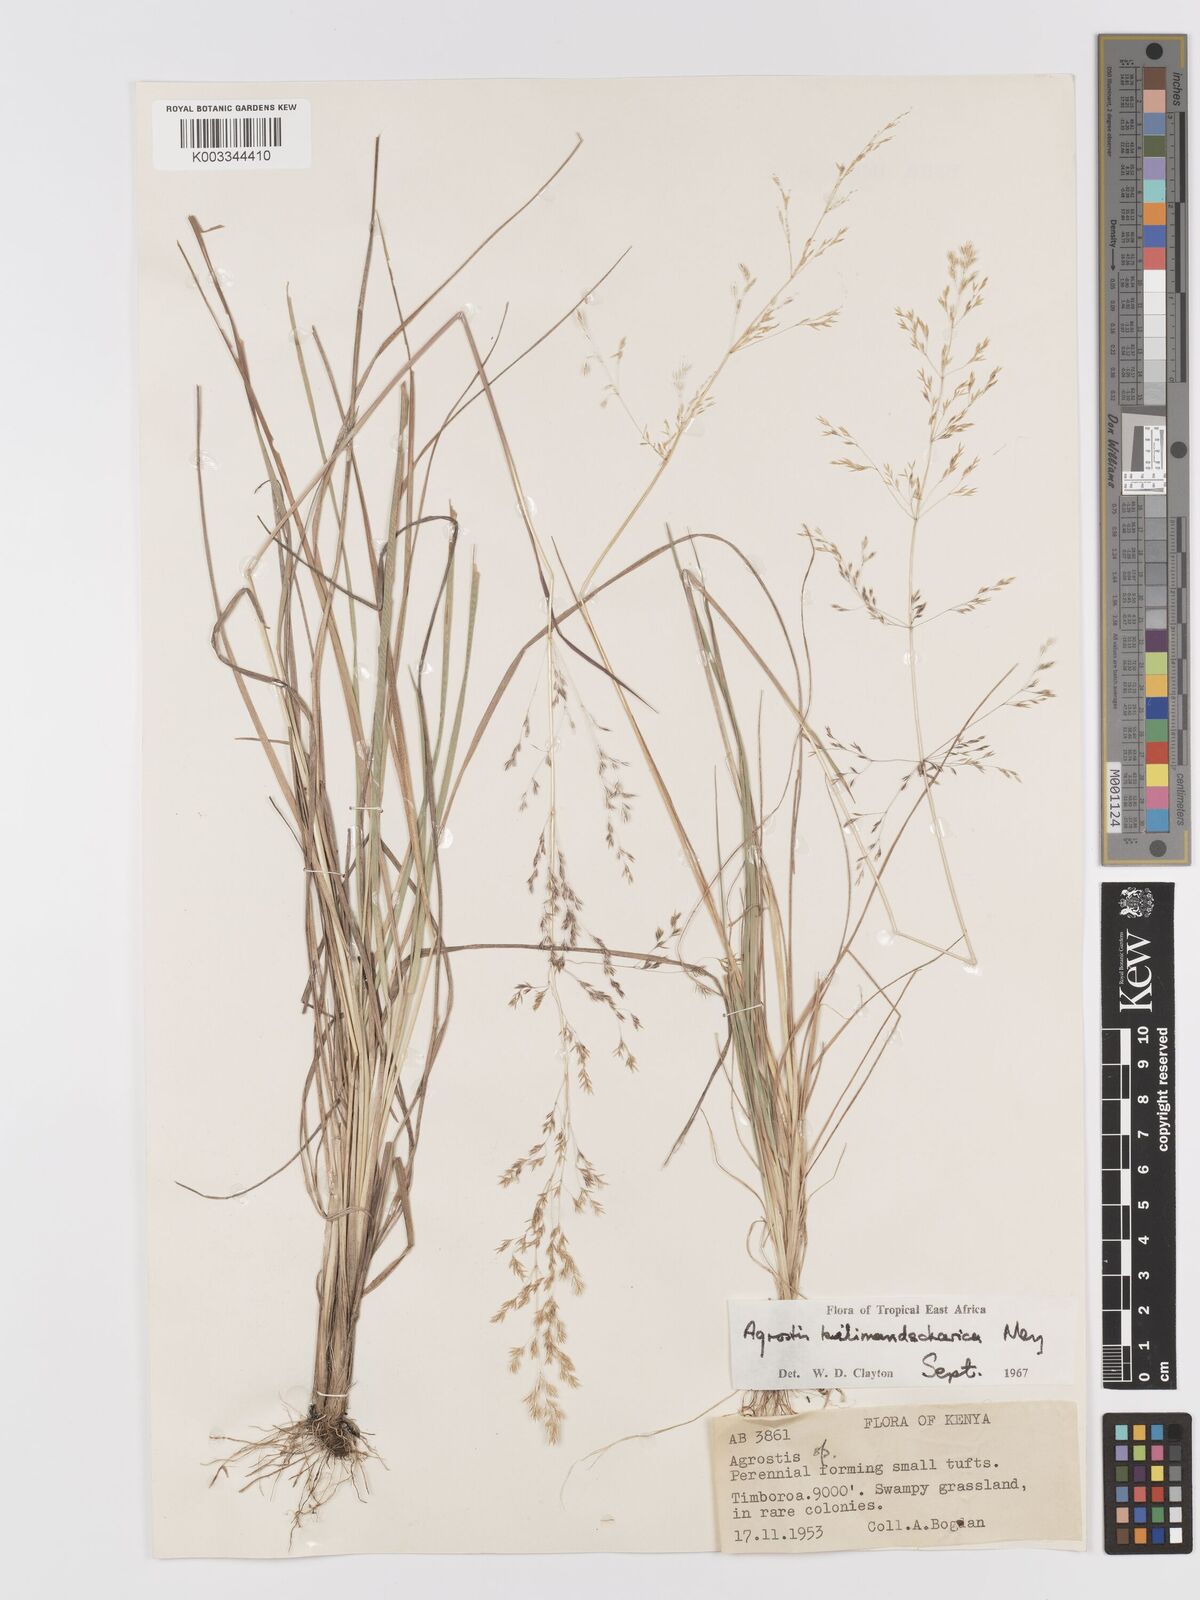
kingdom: Plantae
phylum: Tracheophyta
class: Liliopsida
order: Poales
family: Poaceae
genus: Agrostis
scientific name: Agrostis kilimandscharica
